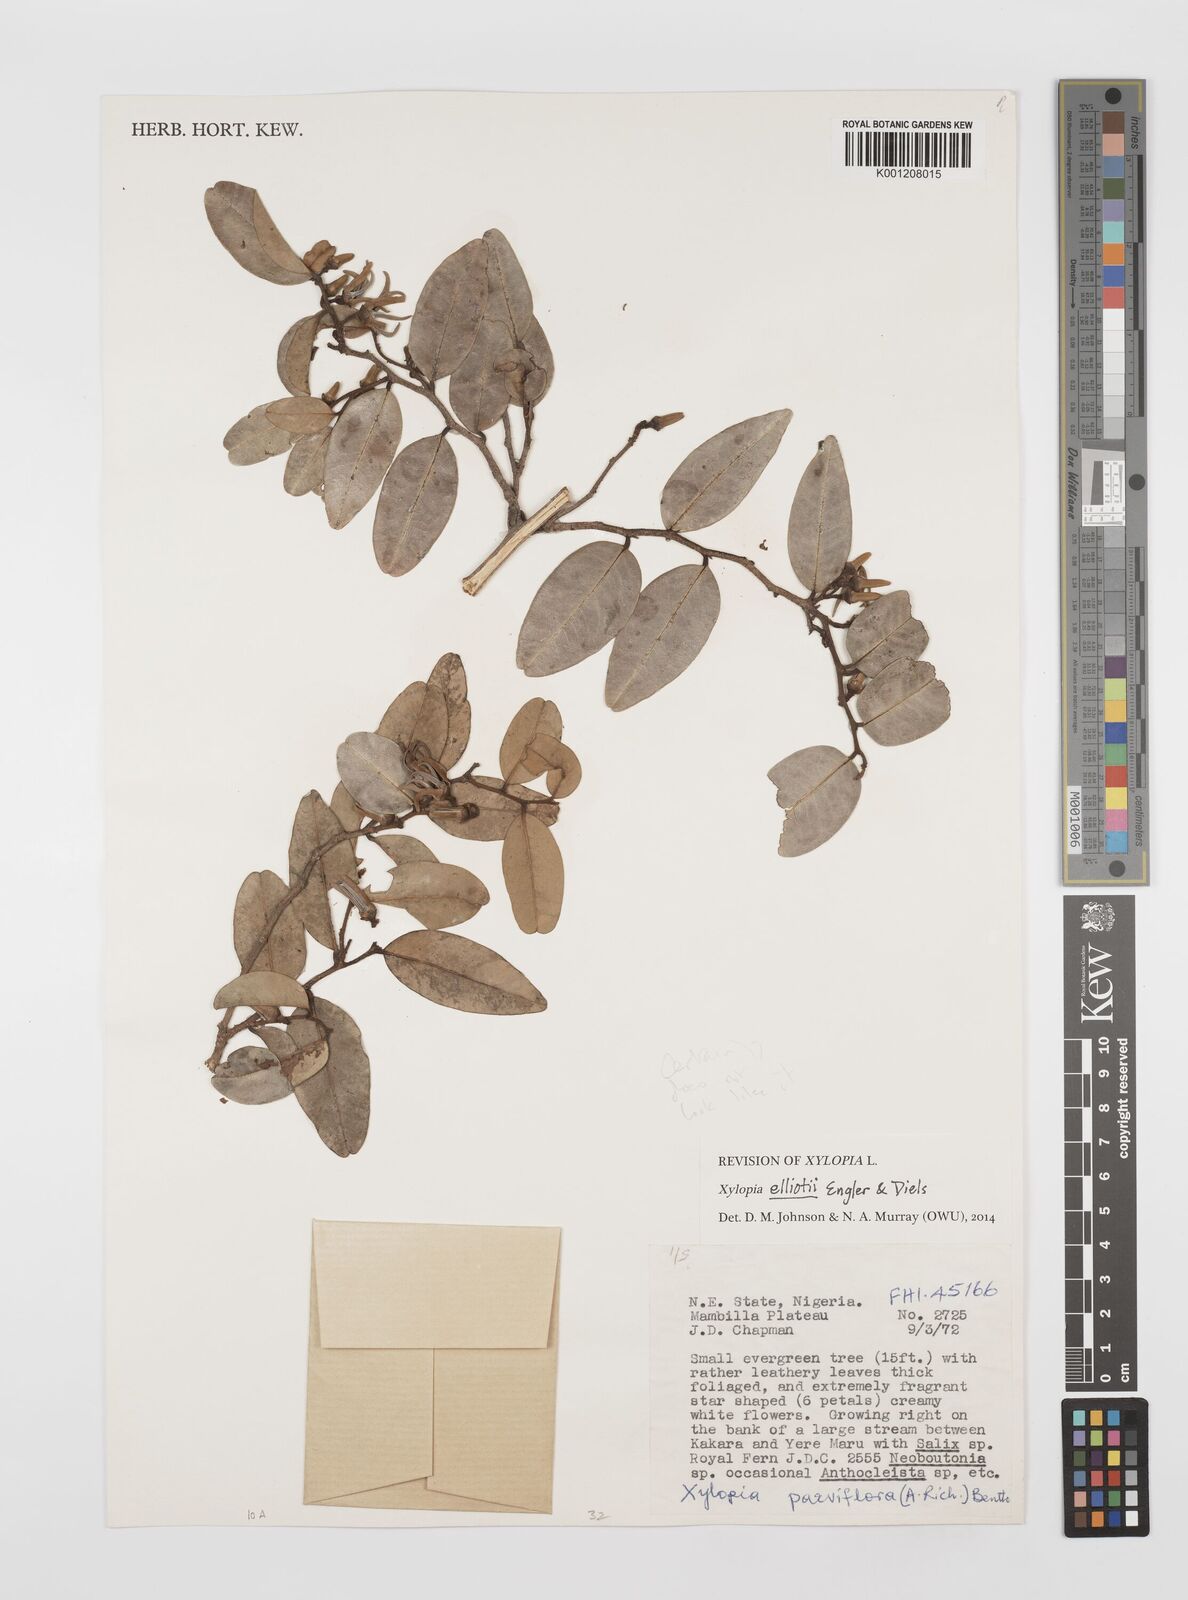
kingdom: Plantae
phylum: Tracheophyta
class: Magnoliopsida
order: Magnoliales
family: Annonaceae
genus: Xylopia
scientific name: Xylopia elliotii
